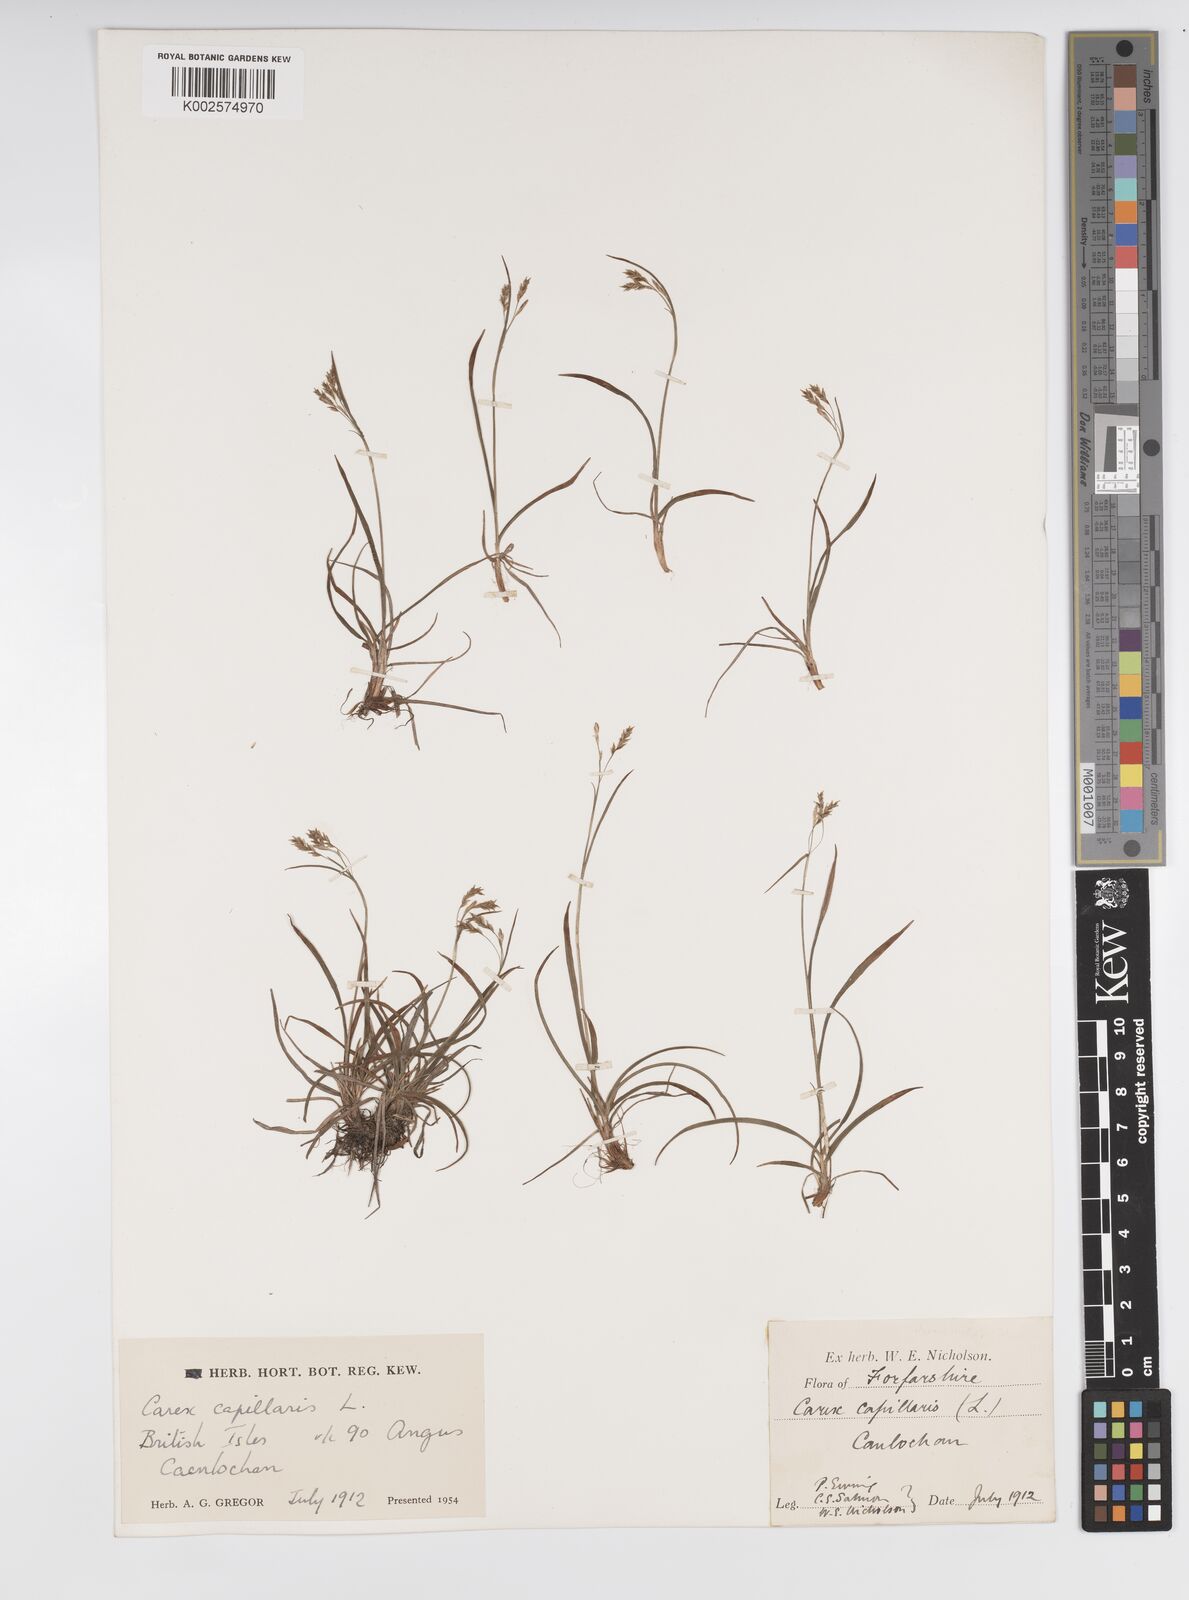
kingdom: Plantae
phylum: Tracheophyta
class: Liliopsida
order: Poales
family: Cyperaceae
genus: Carex
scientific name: Carex capillaris
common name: Hair sedge
